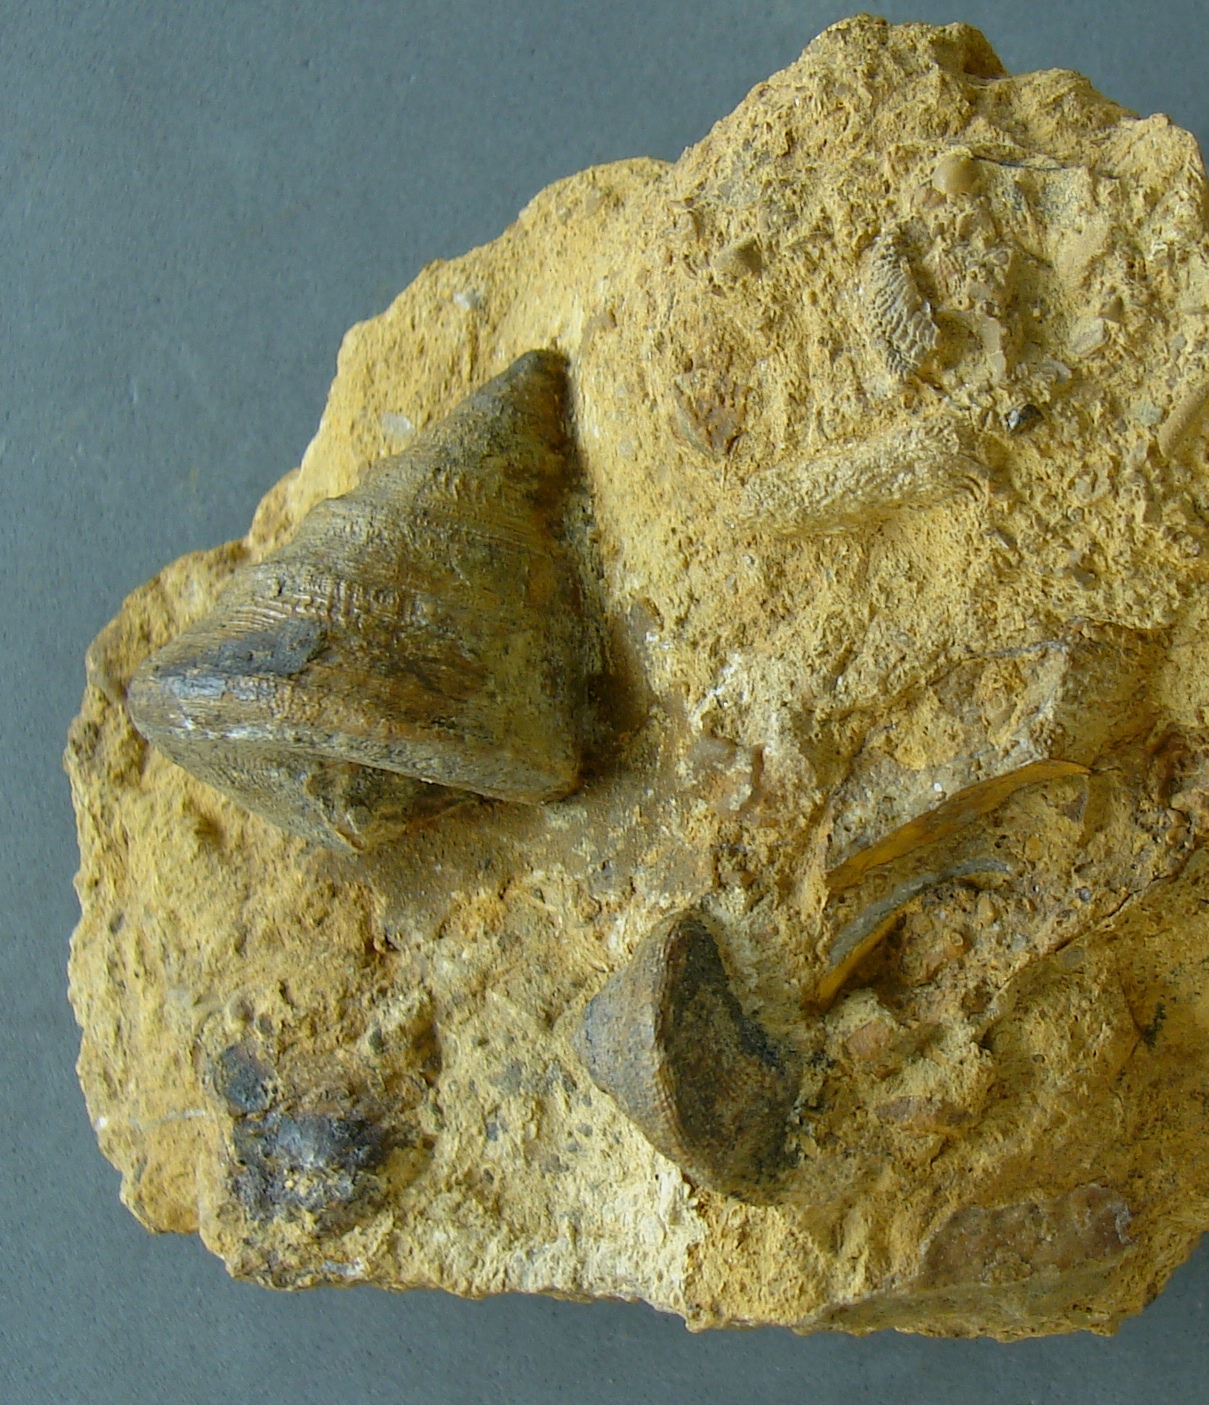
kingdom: Animalia
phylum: Mollusca
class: Gastropoda
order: Pleurotomariida
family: Pleurotomariidae
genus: Pyrgotrochus
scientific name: Pyrgotrochus elongatus
